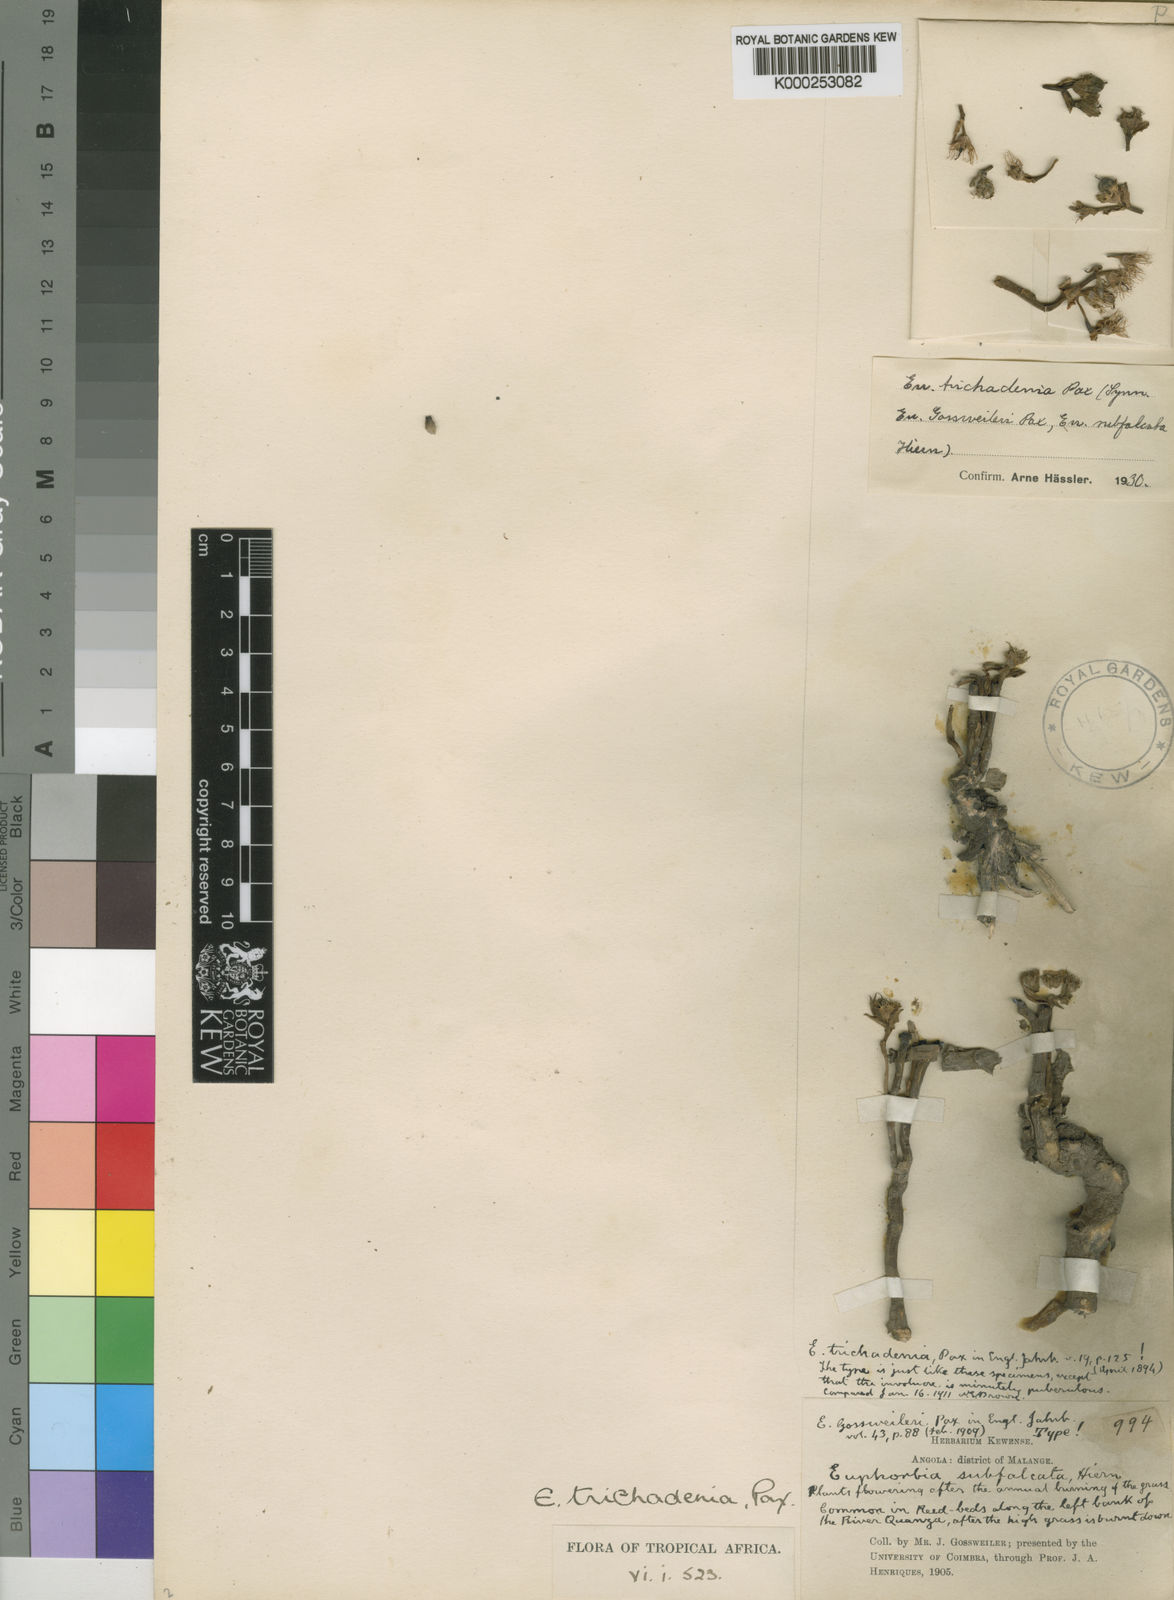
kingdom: Plantae
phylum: Tracheophyta
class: Magnoliopsida
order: Malpighiales
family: Euphorbiaceae
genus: Euphorbia
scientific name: Euphorbia trichadenia
